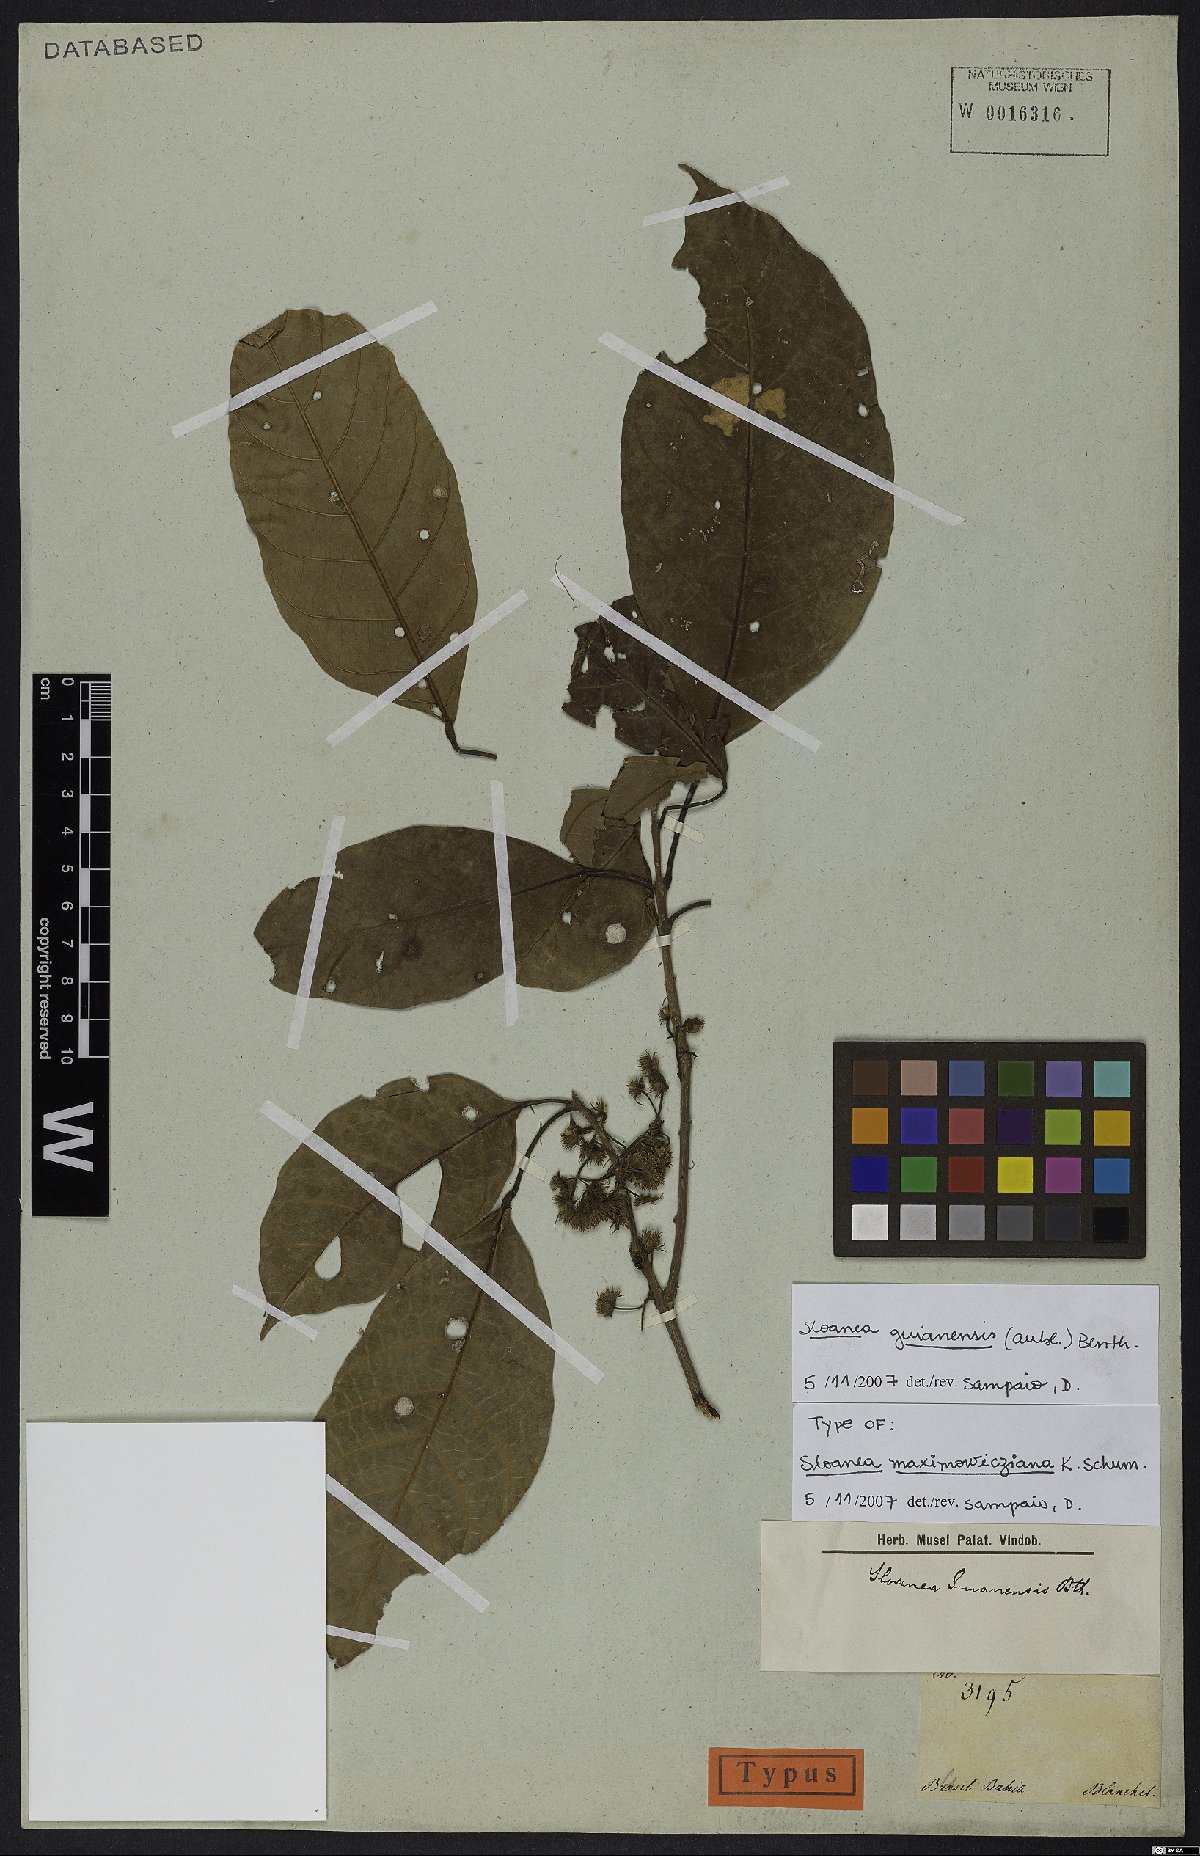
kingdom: Plantae
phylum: Tracheophyta
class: Magnoliopsida
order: Oxalidales
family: Elaeocarpaceae
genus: Sloanea
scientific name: Sloanea guianensis
